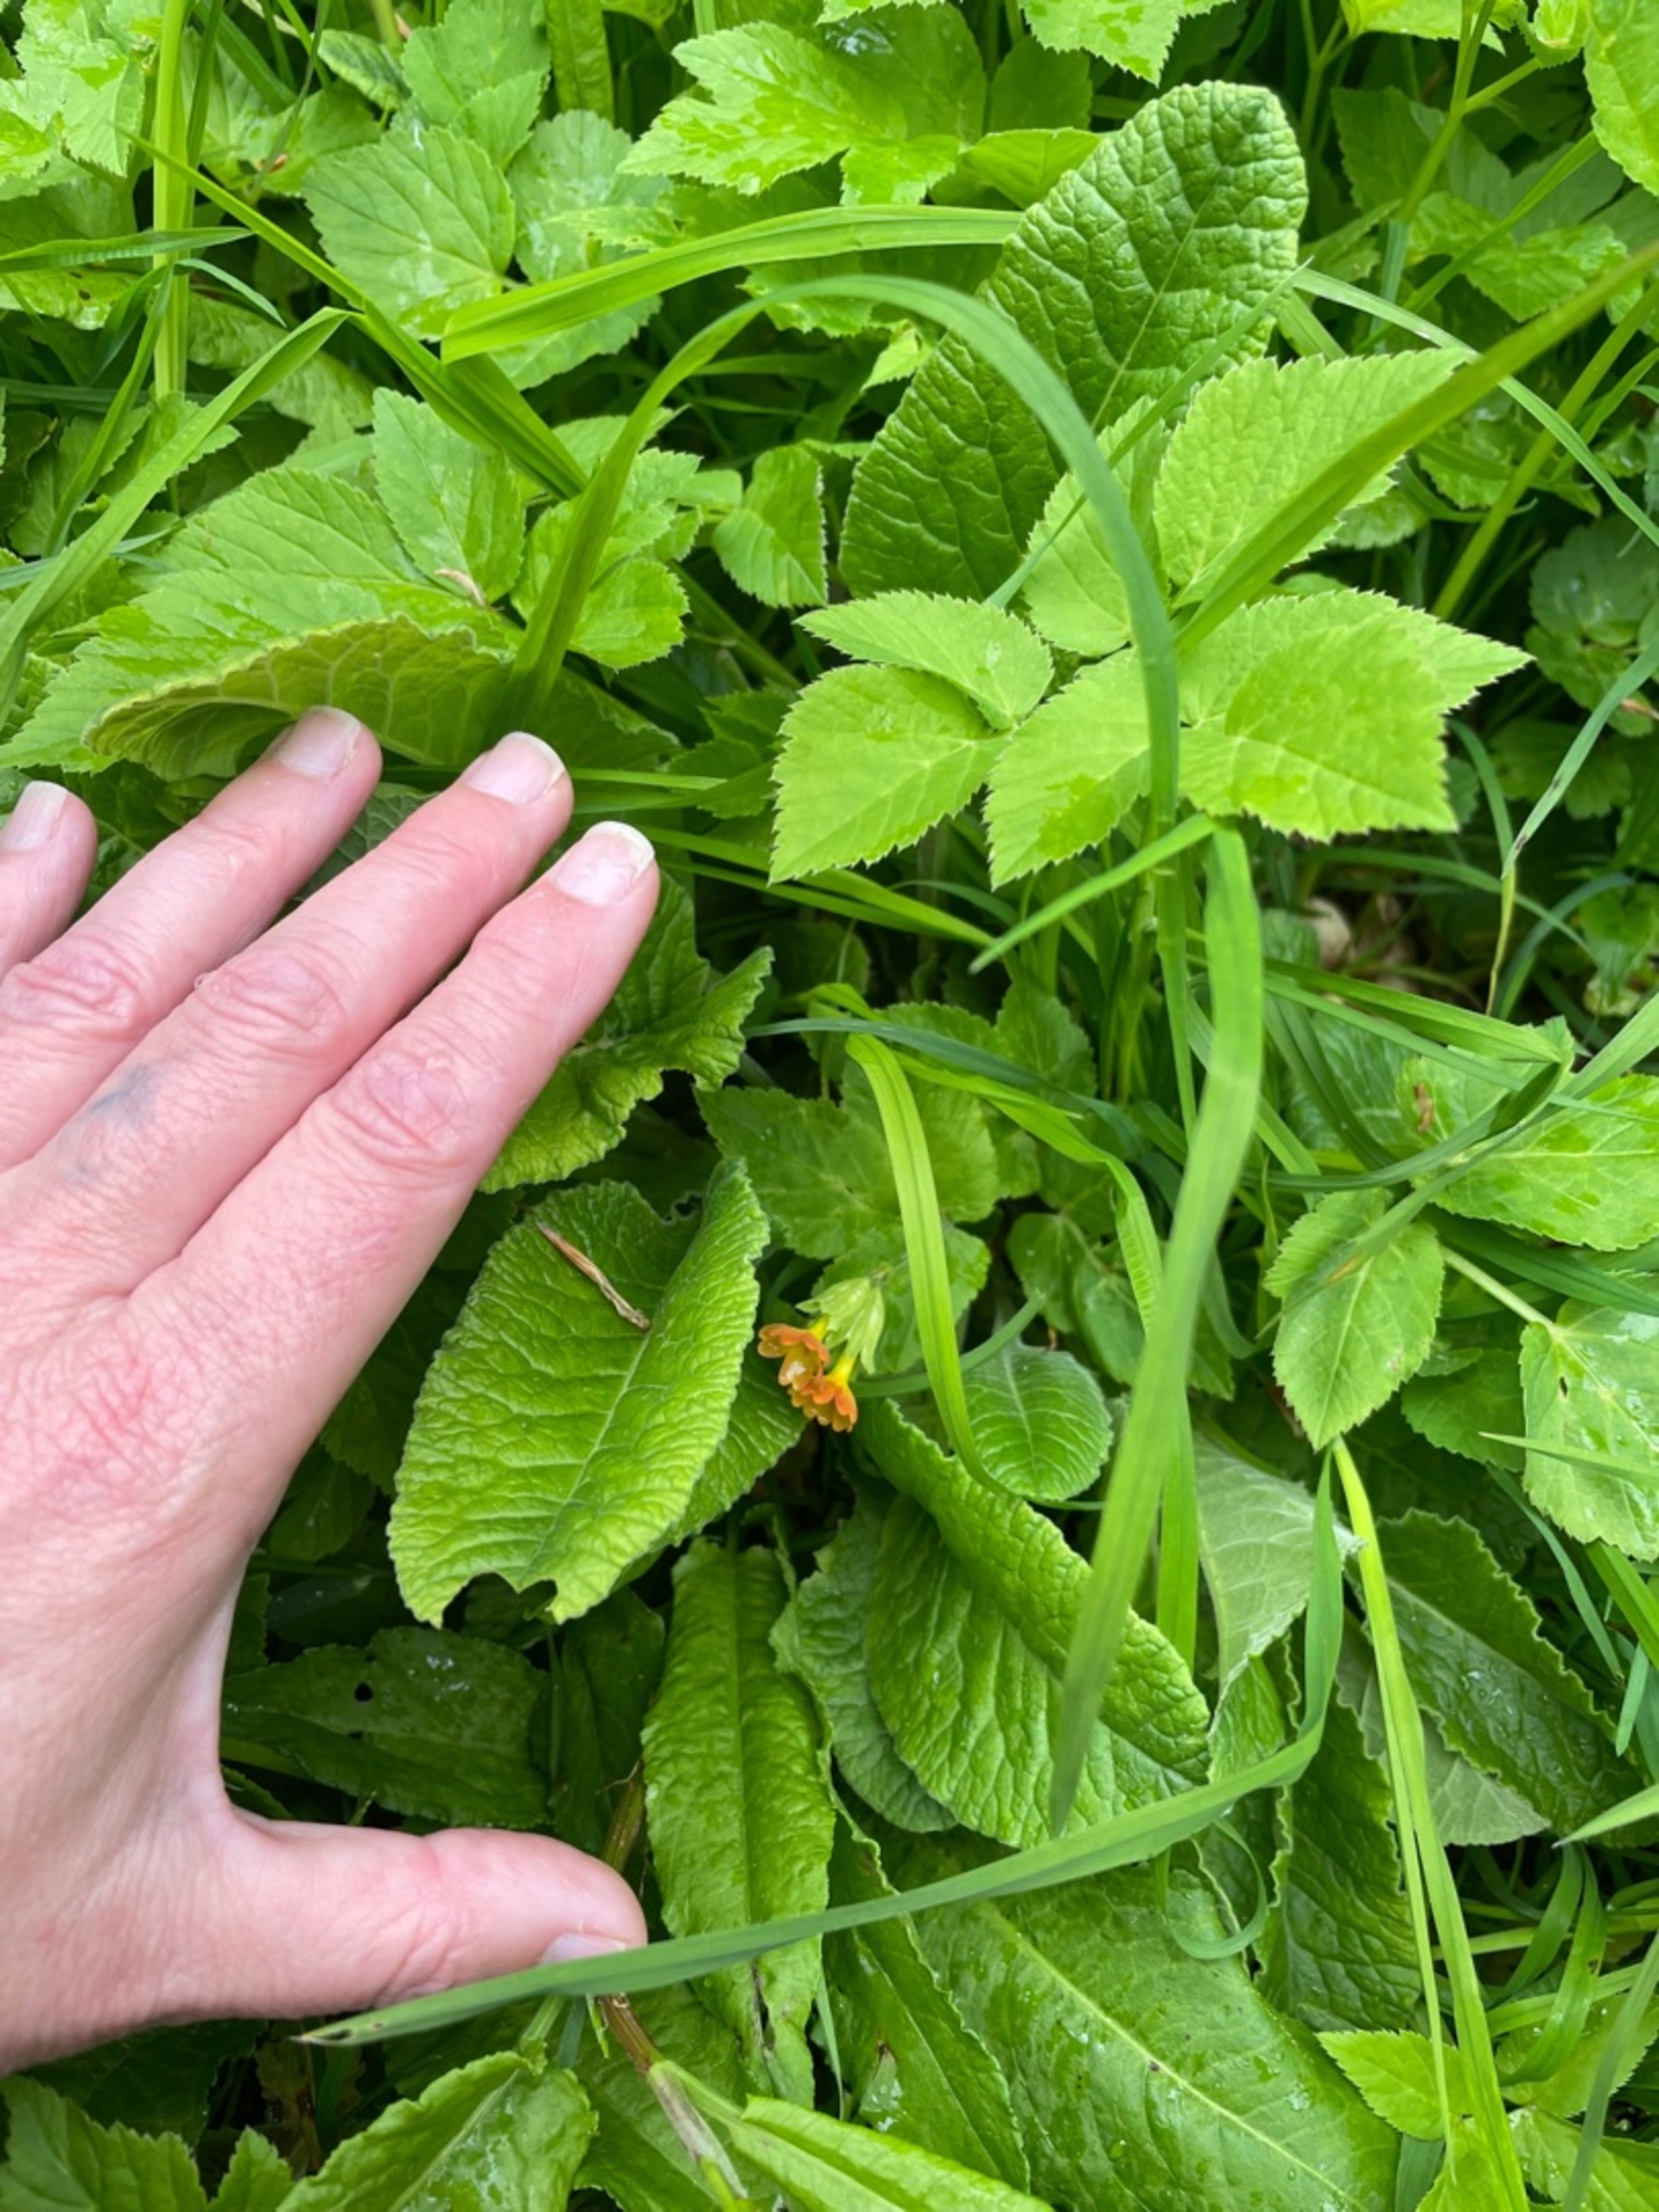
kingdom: Plantae
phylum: Tracheophyta
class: Magnoliopsida
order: Ericales
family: Primulaceae
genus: Primula
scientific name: Primula veris
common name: Hulkravet kodriver
